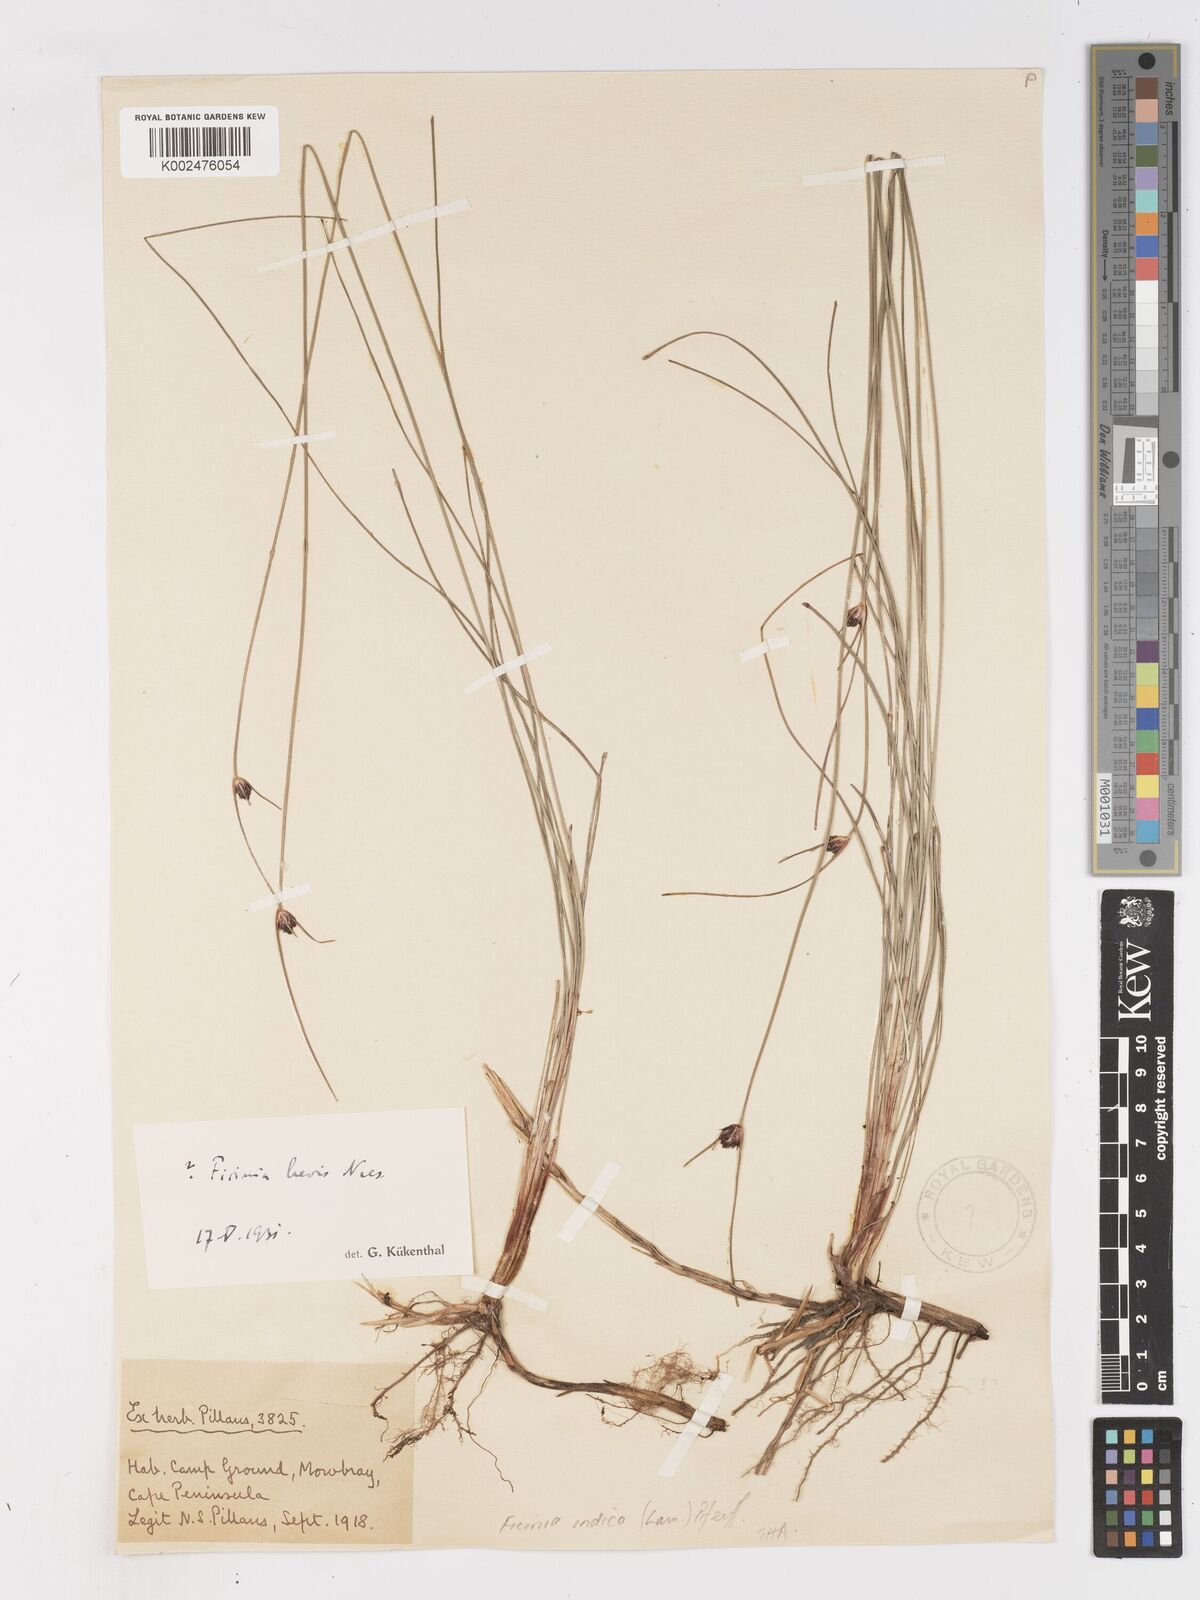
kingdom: Plantae
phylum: Tracheophyta
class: Liliopsida
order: Poales
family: Cyperaceae
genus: Ficinia
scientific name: Ficinia indica
